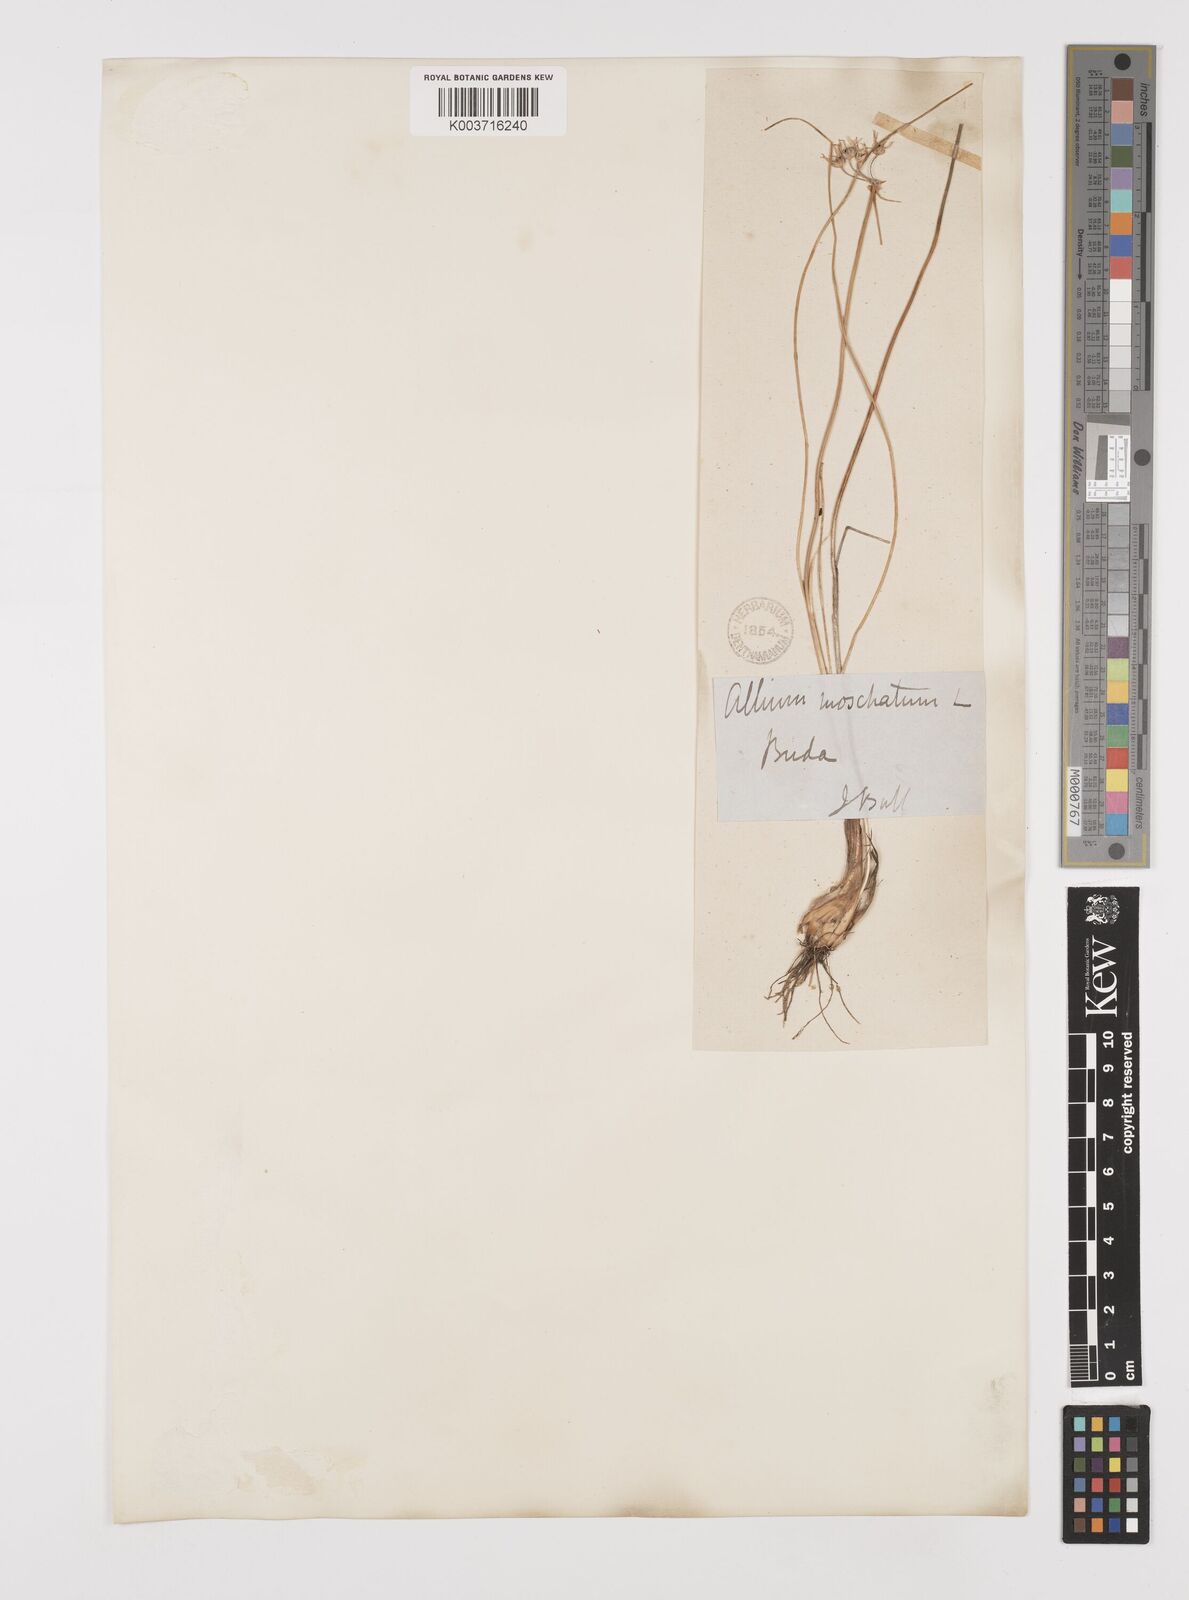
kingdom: Plantae
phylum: Tracheophyta
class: Liliopsida
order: Asparagales
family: Amaryllidaceae
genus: Allium
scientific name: Allium moschatum
